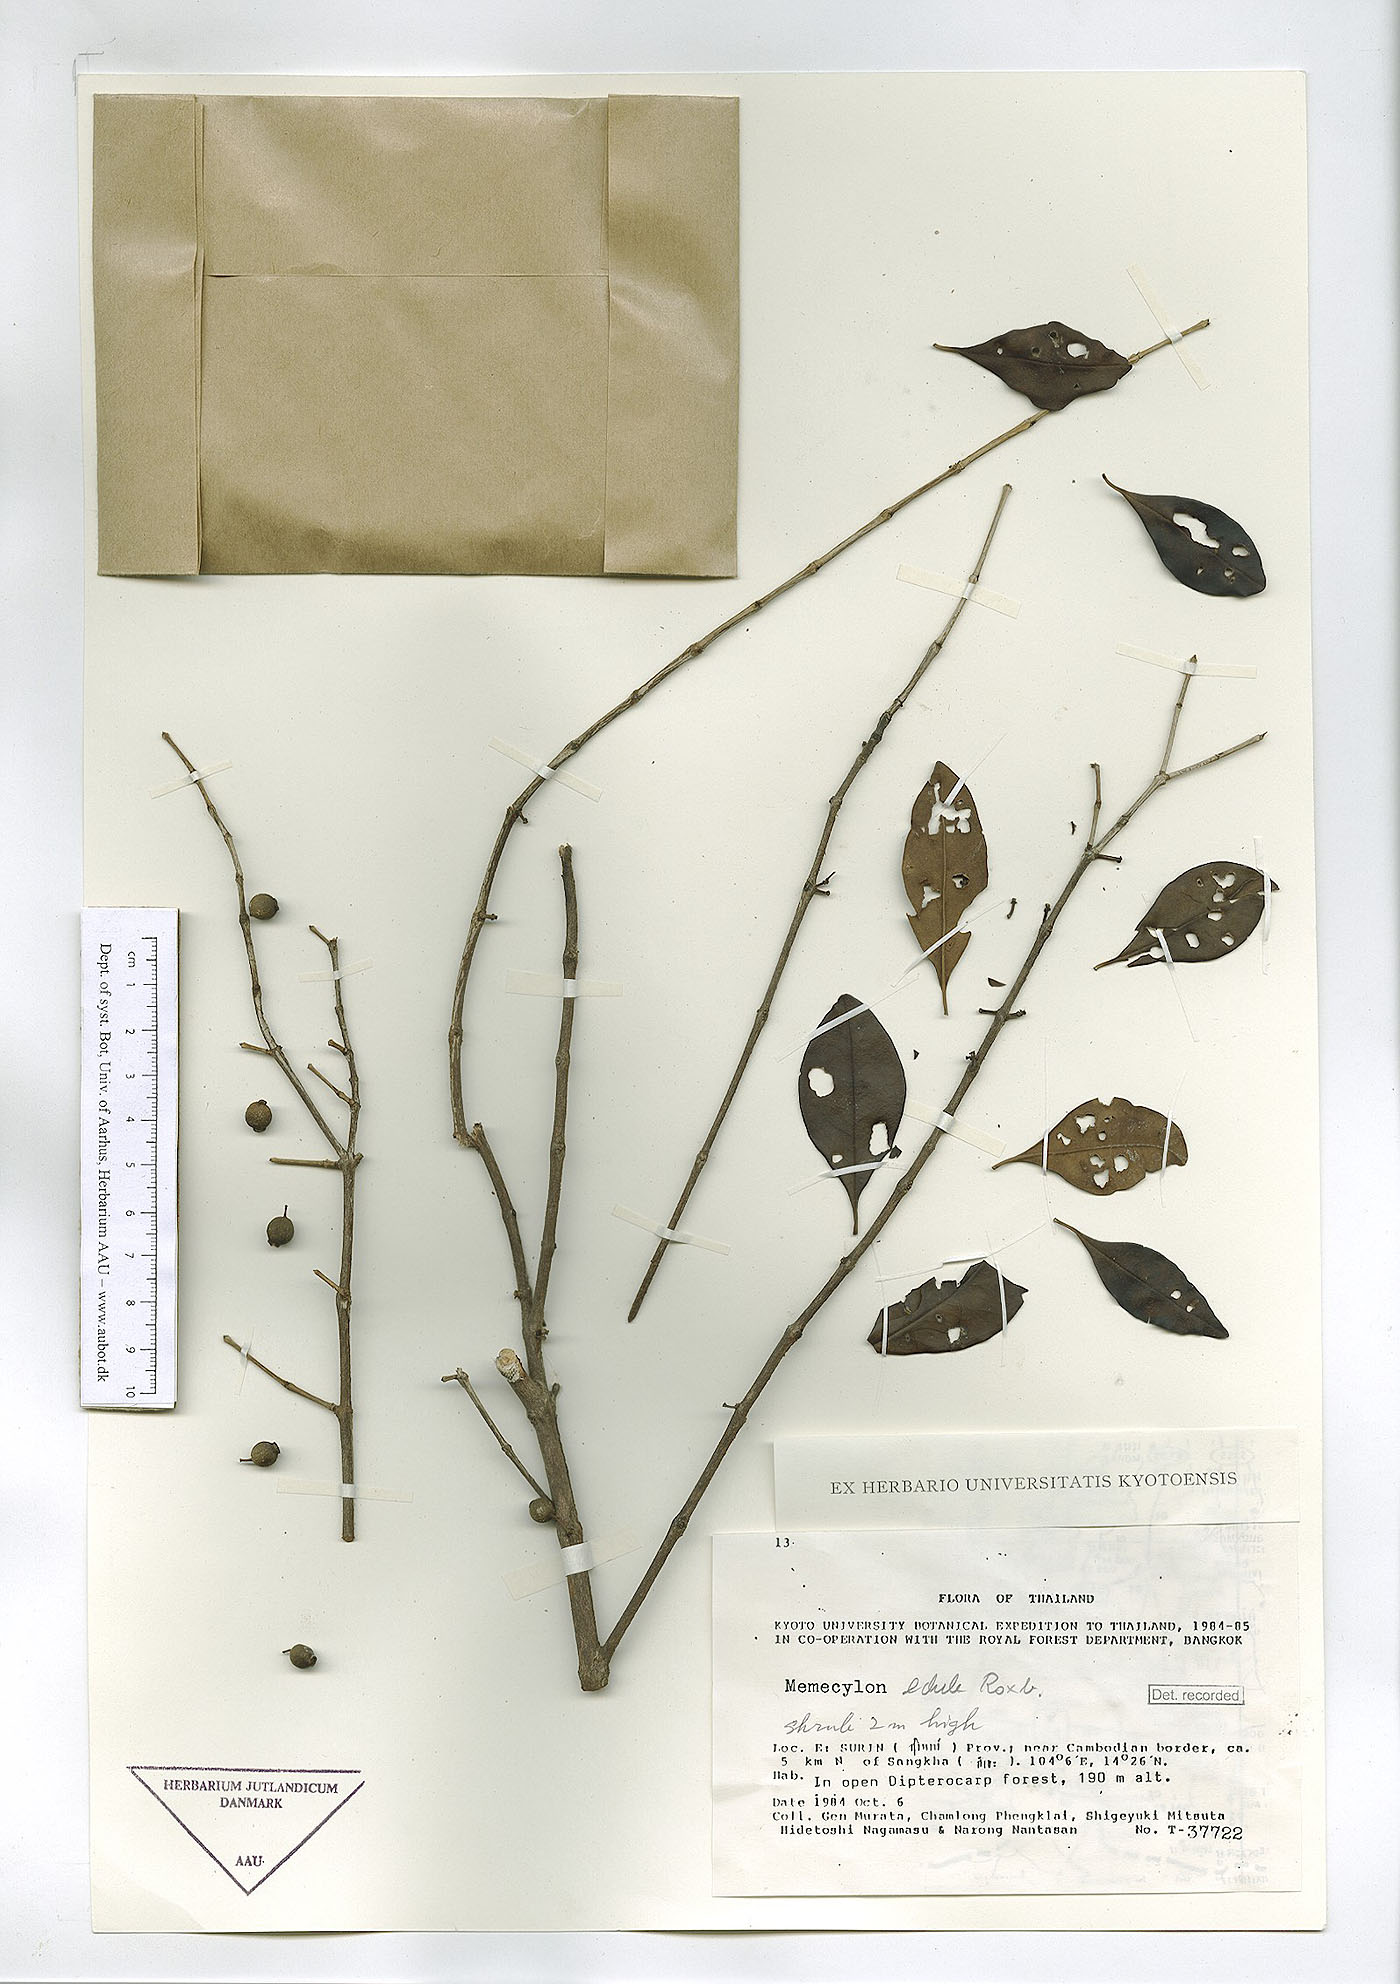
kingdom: Plantae
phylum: Tracheophyta
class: Magnoliopsida
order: Myrtales
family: Melastomataceae
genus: Memecylon
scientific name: Memecylon scutellatum
